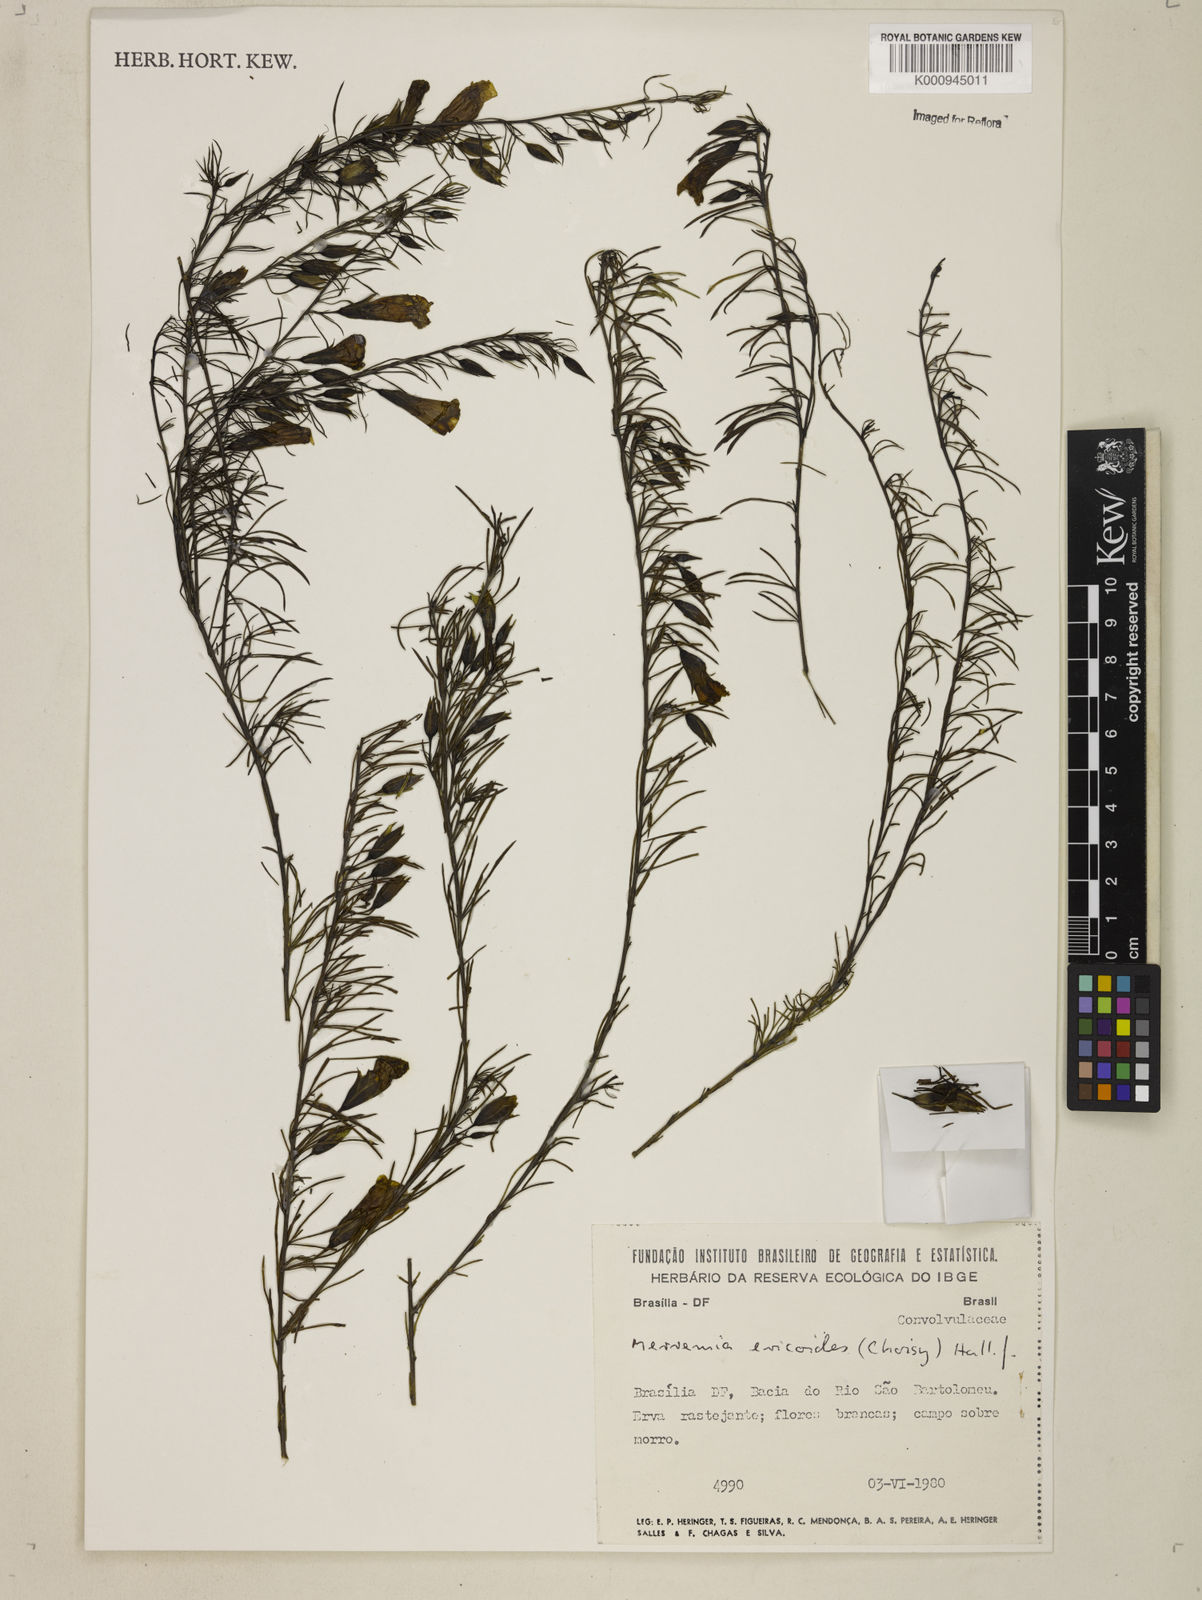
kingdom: Plantae
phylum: Tracheophyta
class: Magnoliopsida
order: Solanales
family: Convolvulaceae
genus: Distimake
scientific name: Distimake ericoides
